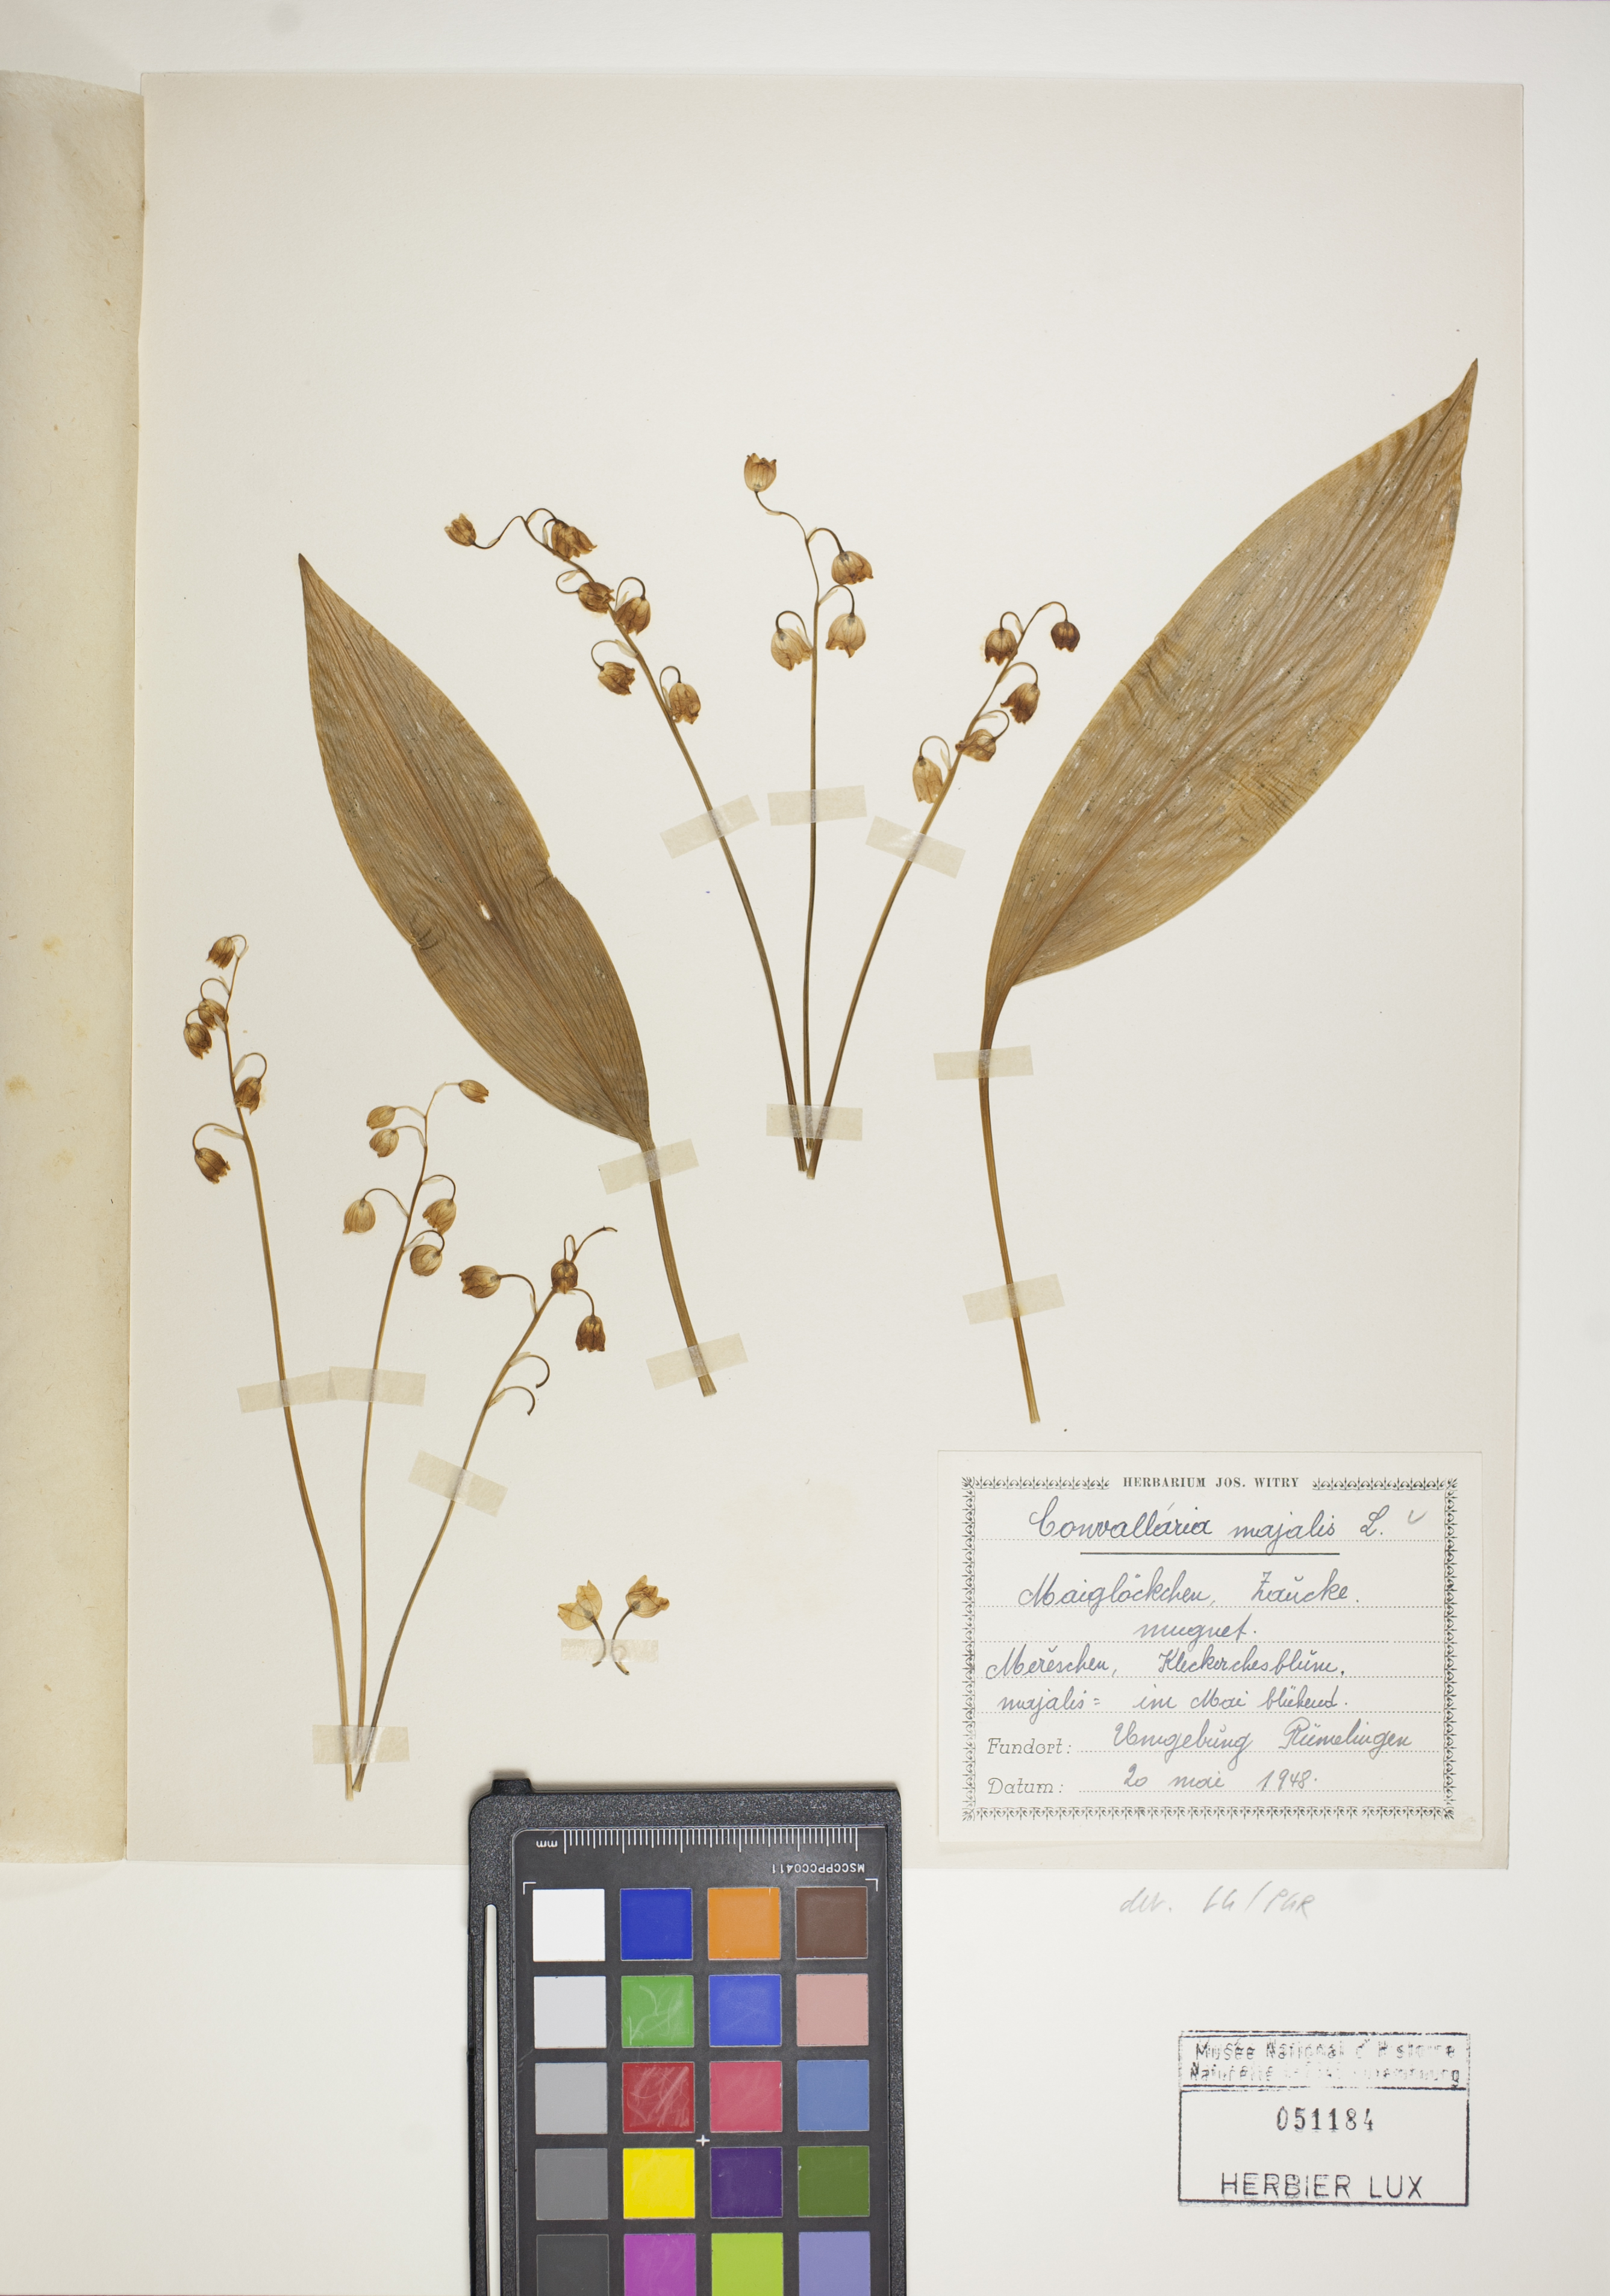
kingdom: Plantae
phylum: Tracheophyta
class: Liliopsida
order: Asparagales
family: Asparagaceae
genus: Convallaria
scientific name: Convallaria majalis
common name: Lily-of-the-valley
